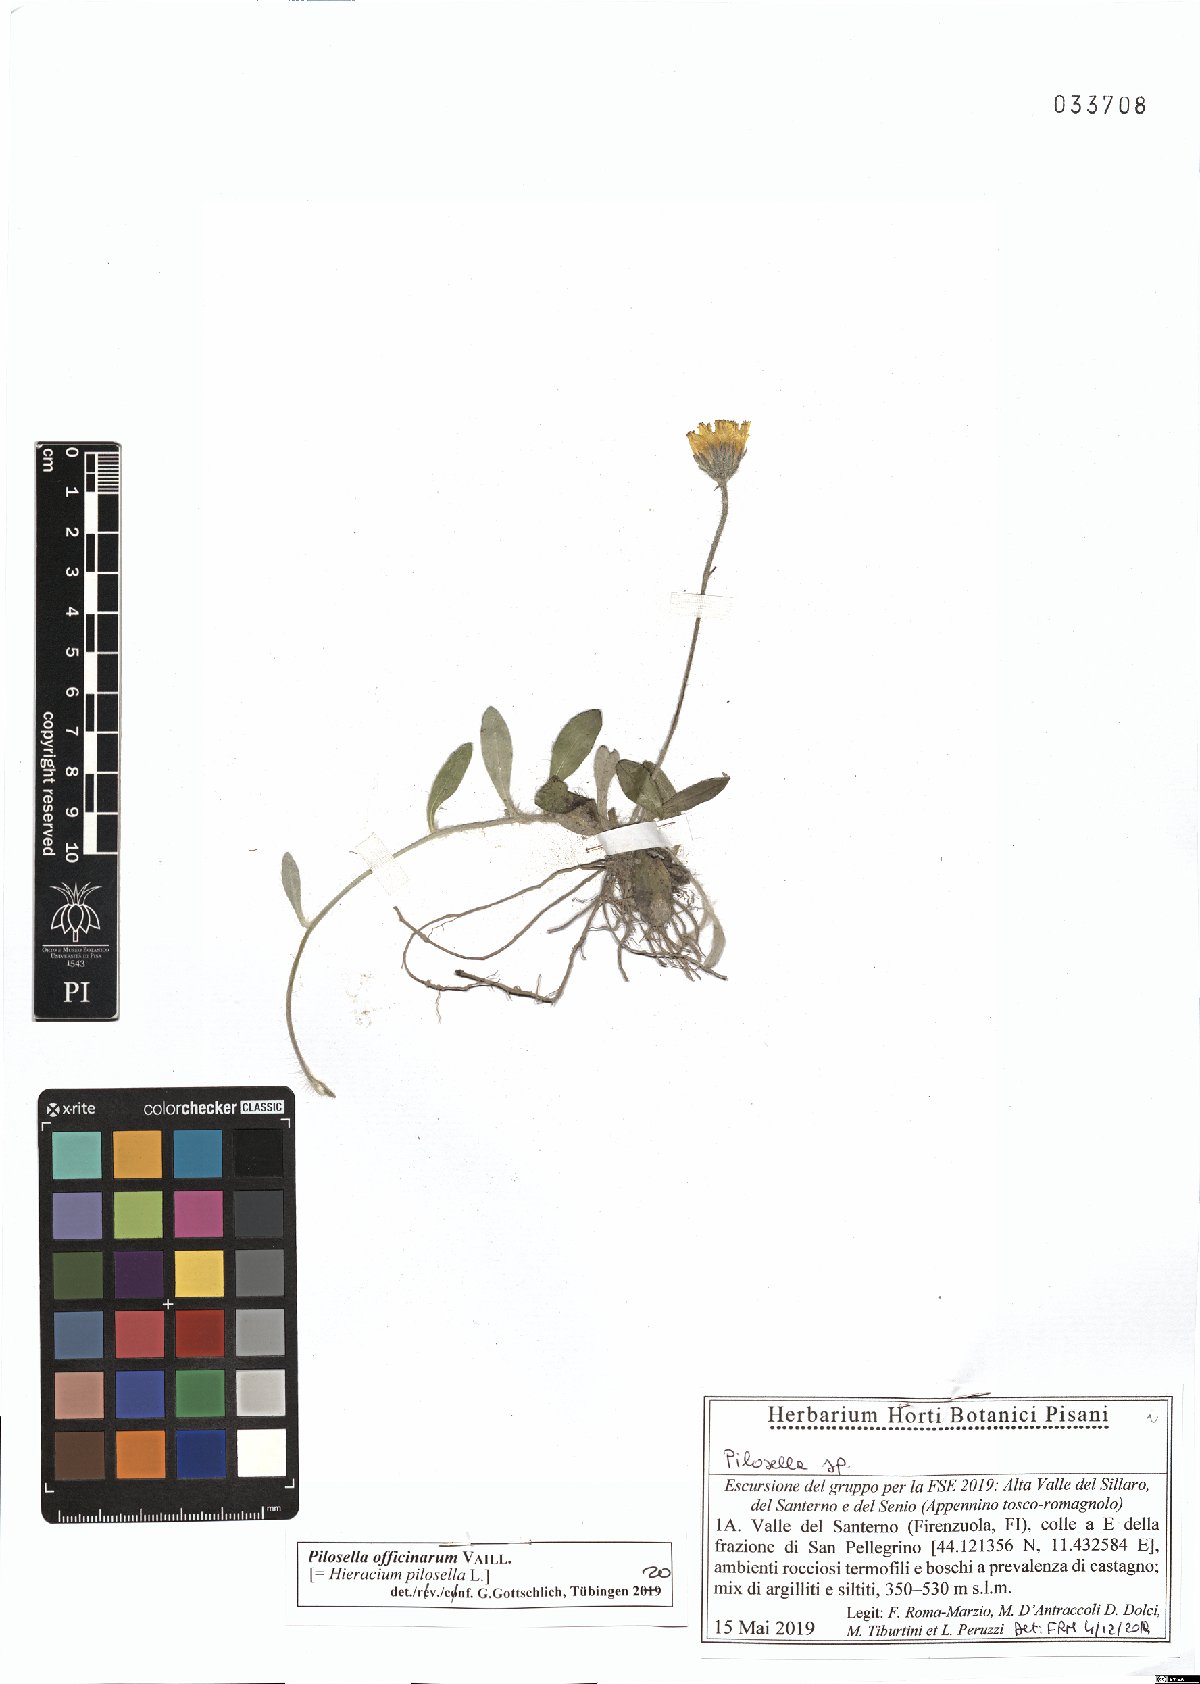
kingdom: Plantae
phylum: Tracheophyta
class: Magnoliopsida
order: Asterales
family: Asteraceae
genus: Pilosella
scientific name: Pilosella officinarum
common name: Mouse-ear hawkweed
